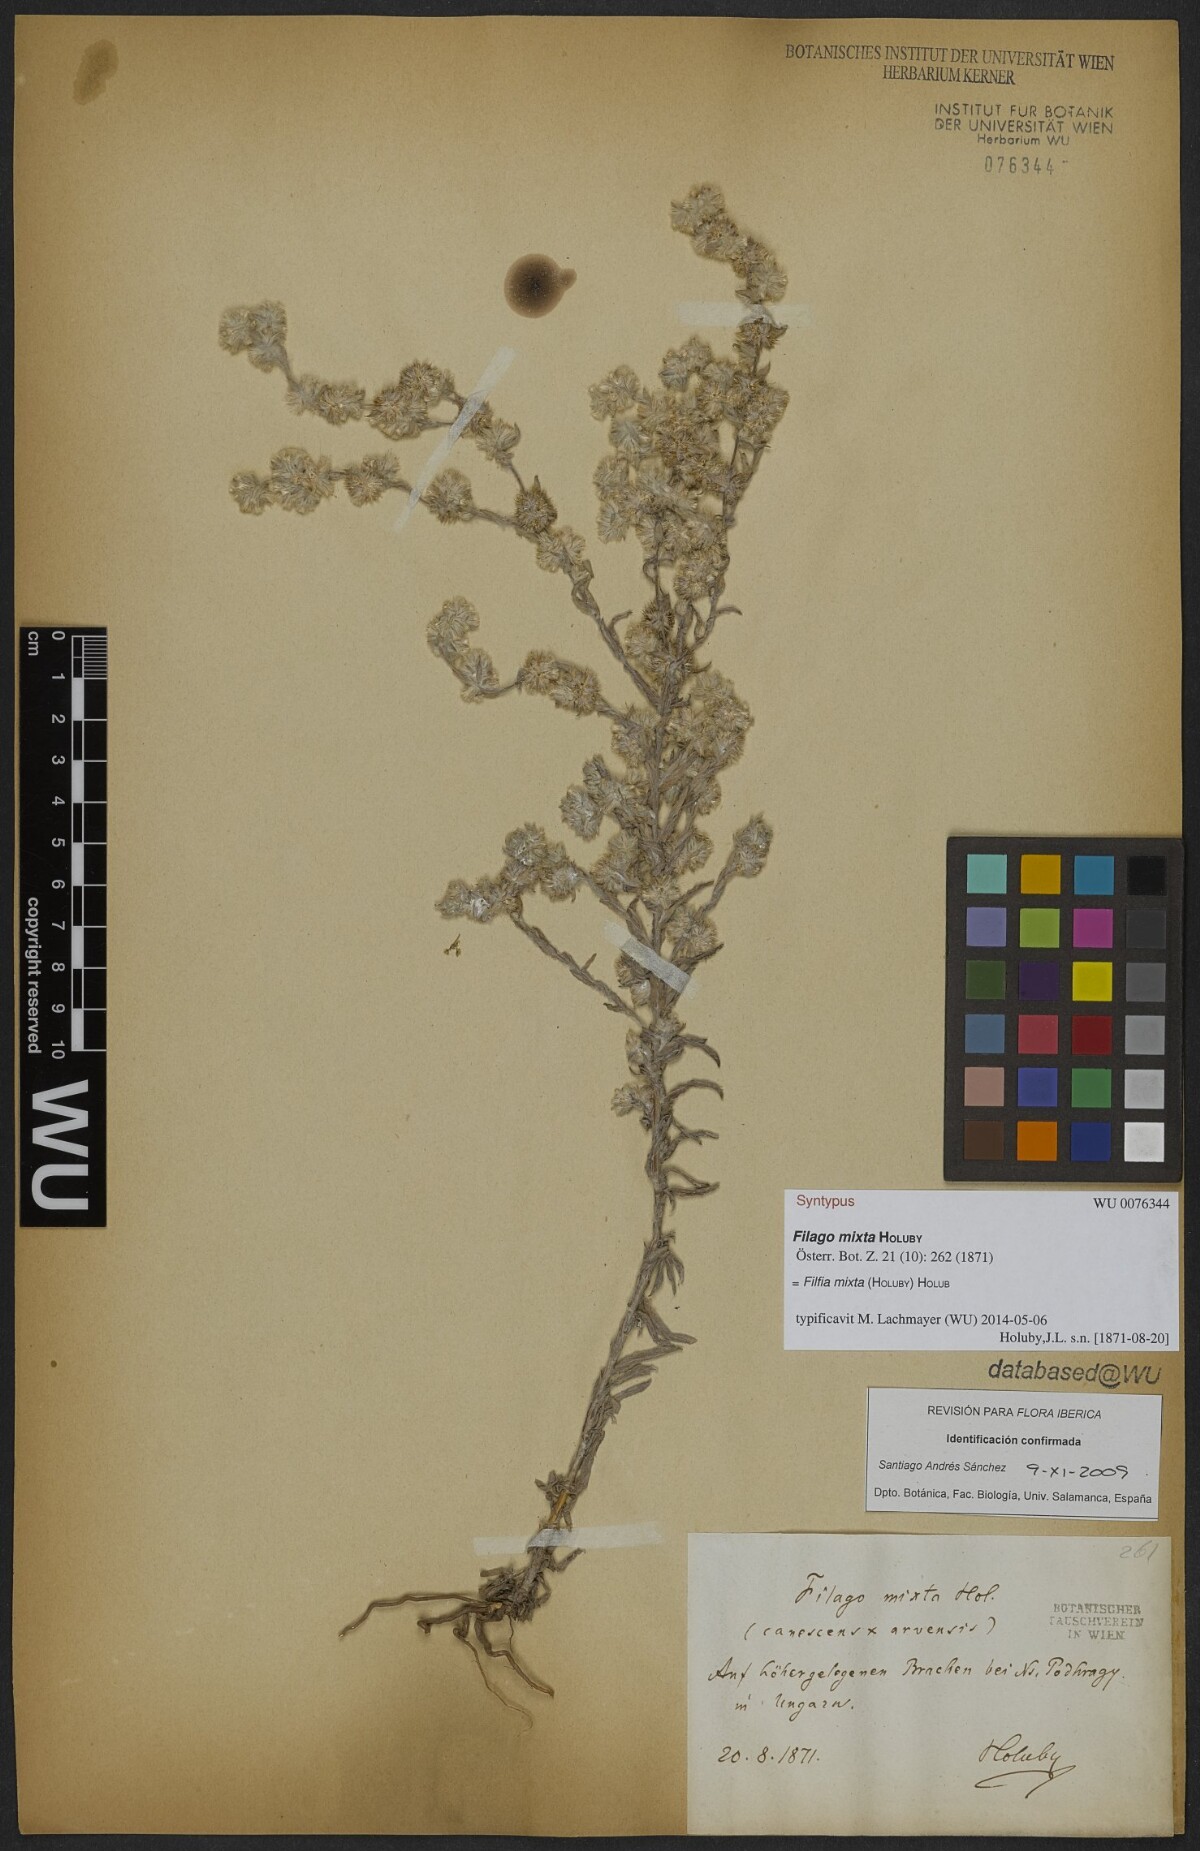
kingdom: Plantae
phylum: Tracheophyta
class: Magnoliopsida
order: Asterales
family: Asteraceae
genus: Filago
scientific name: Filago mixta
